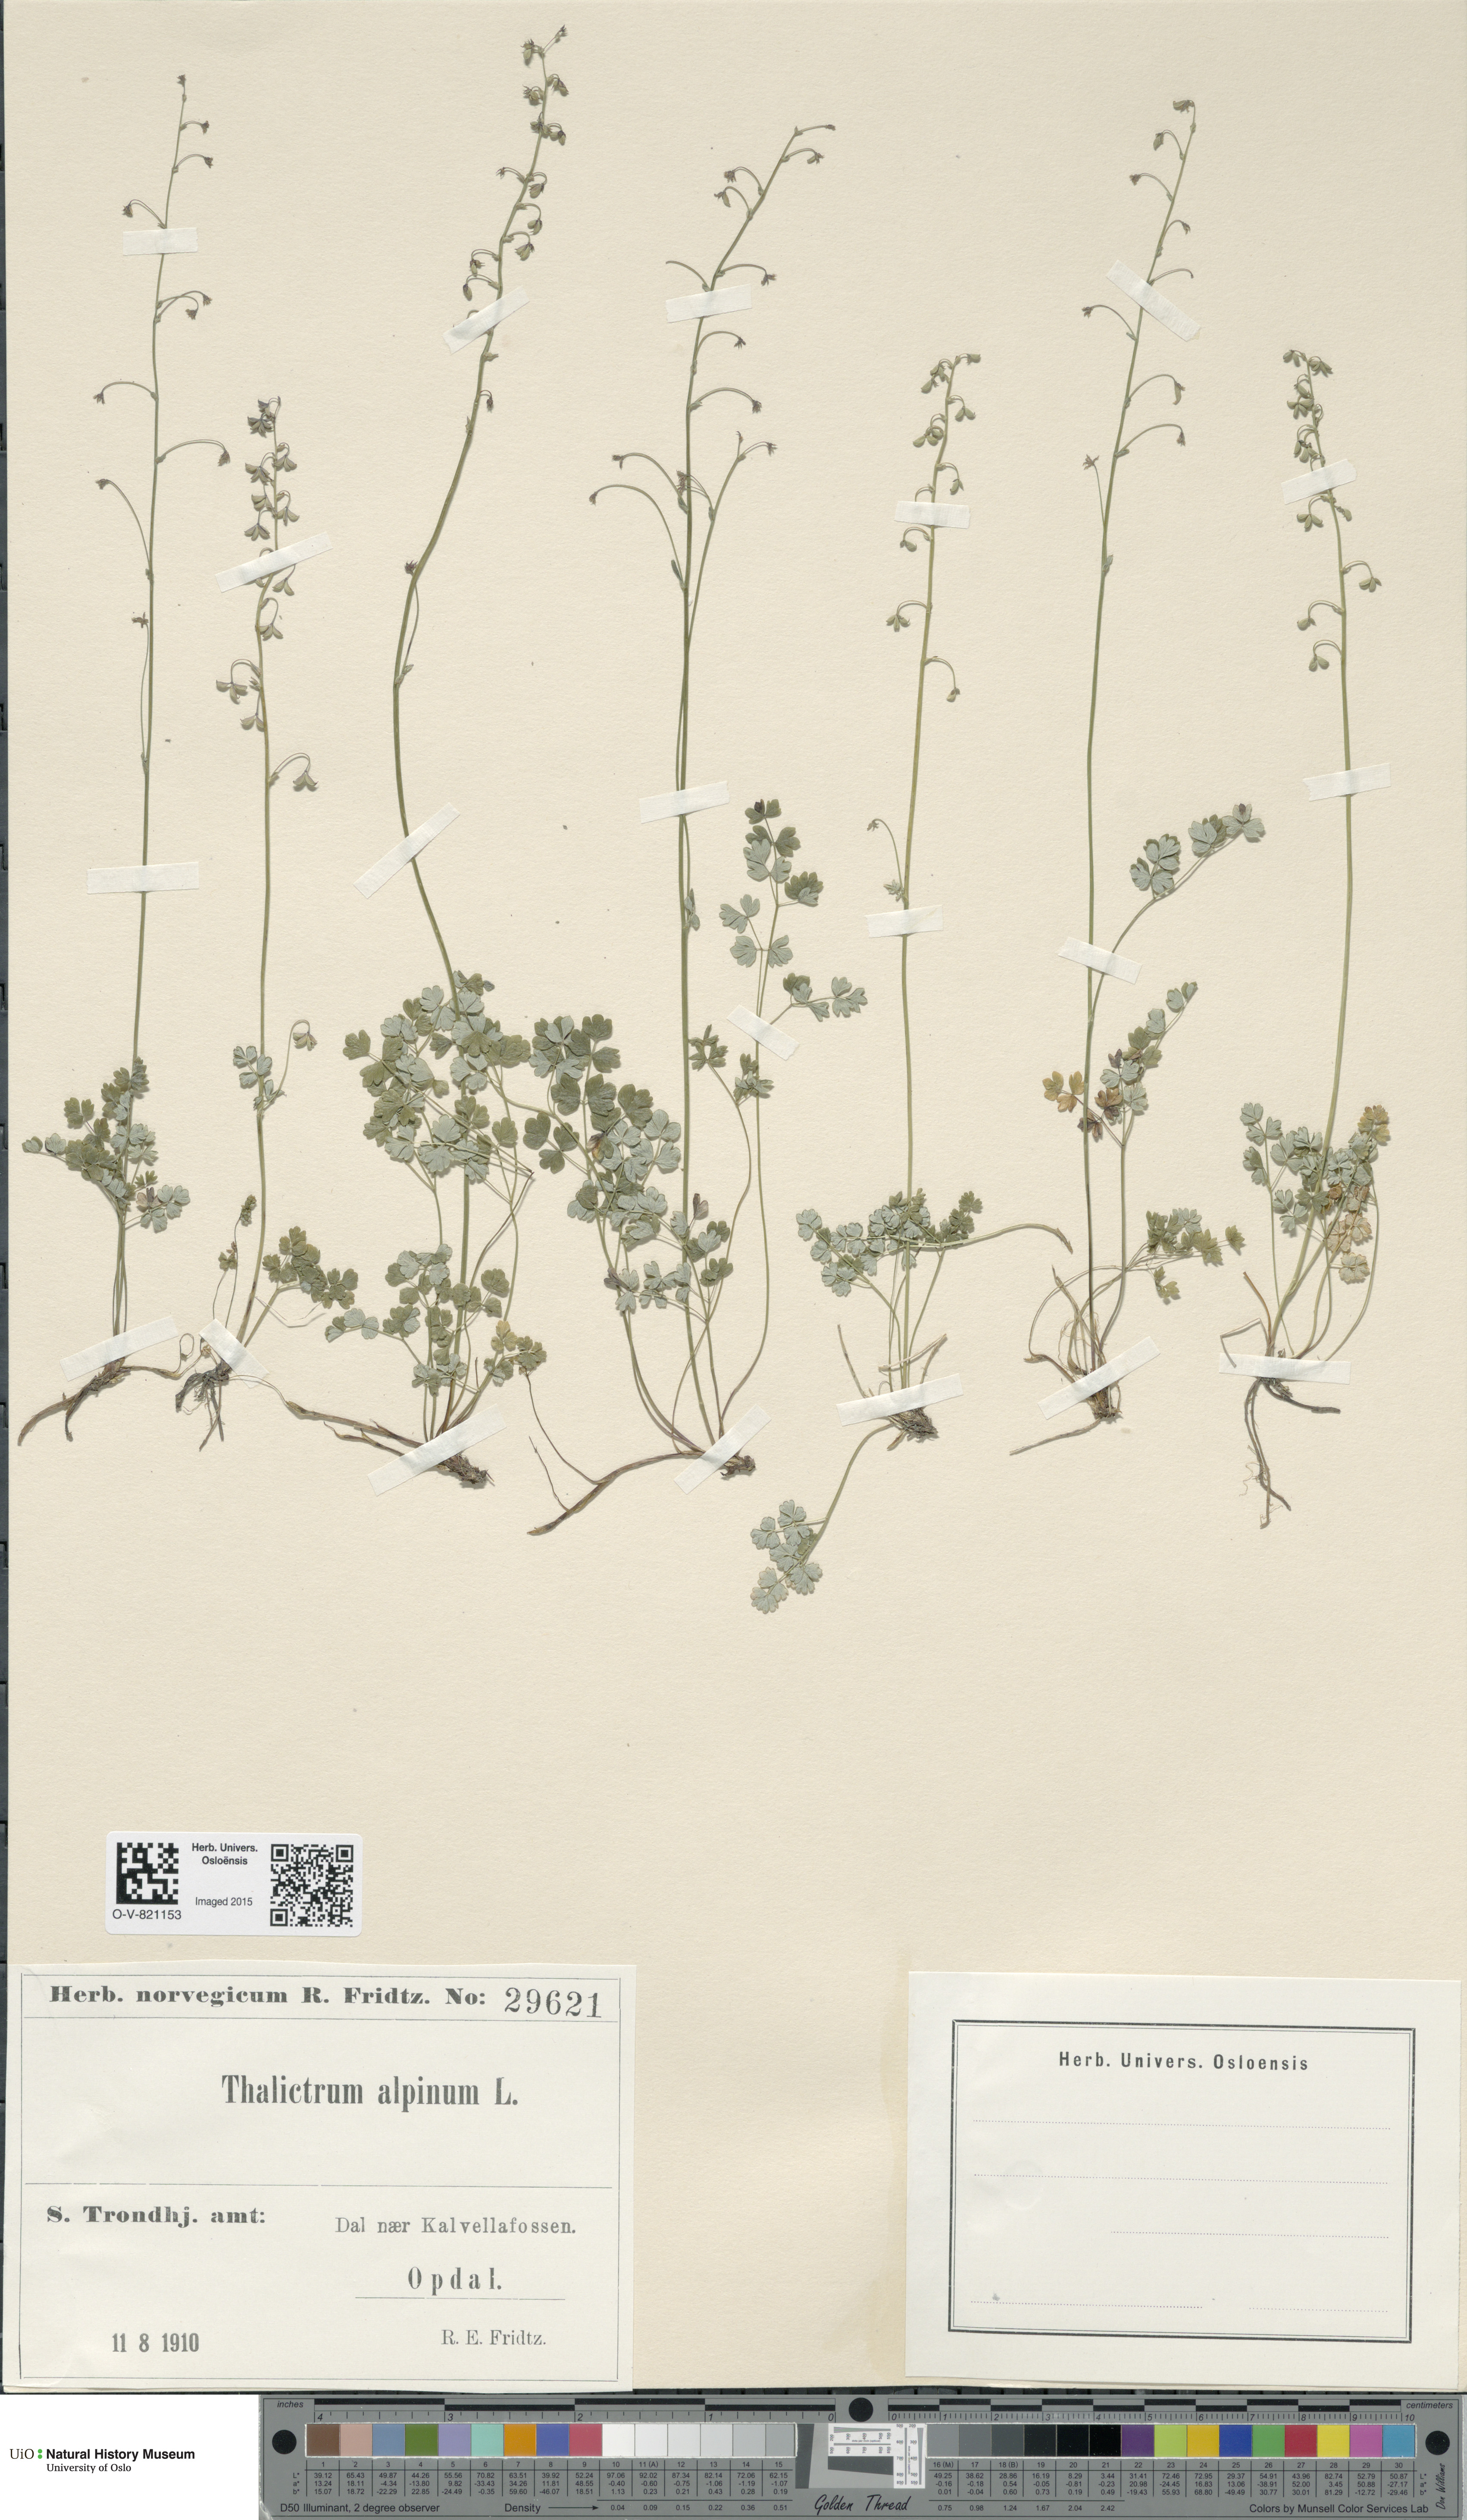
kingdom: Plantae
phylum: Tracheophyta
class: Magnoliopsida
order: Ranunculales
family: Ranunculaceae
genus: Thalictrum
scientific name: Thalictrum alpinum
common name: Alpine meadow-rue
